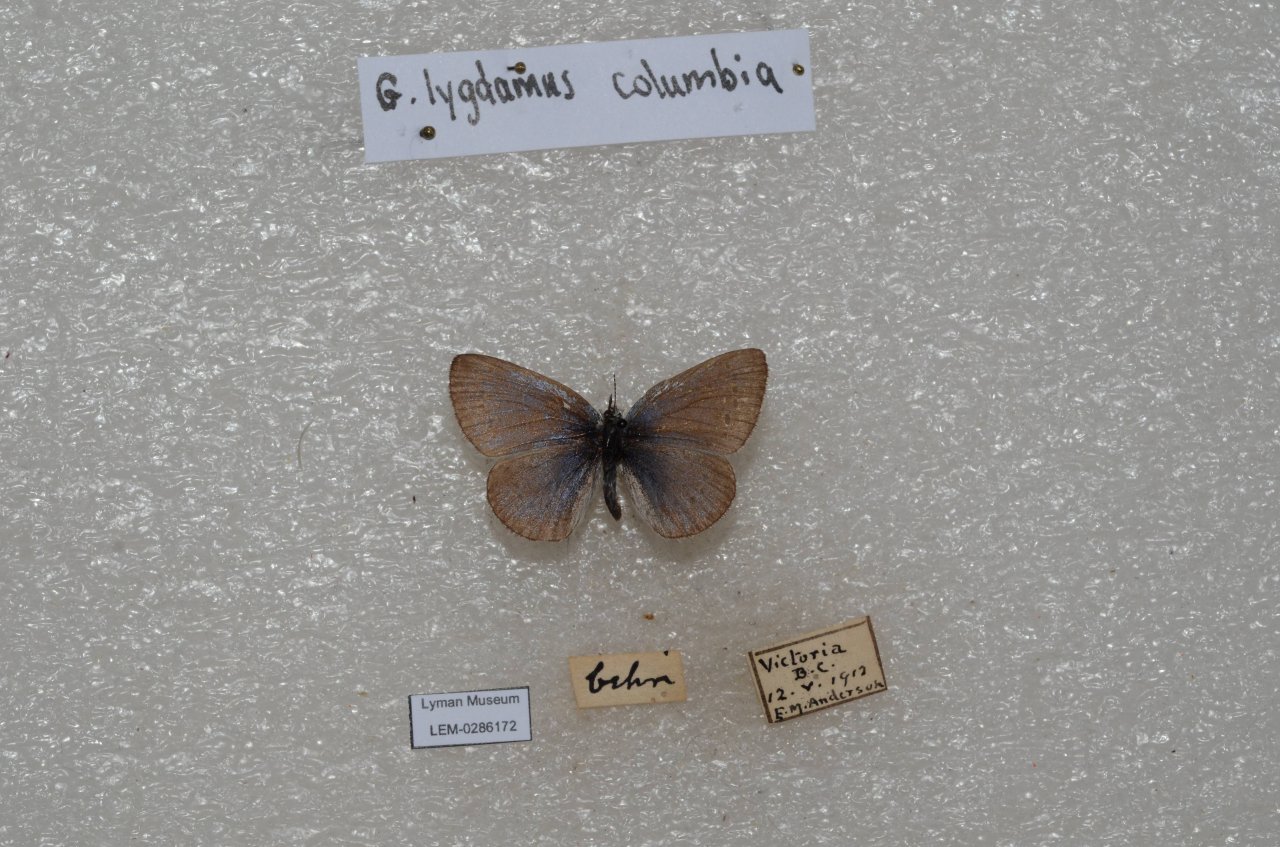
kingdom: Animalia
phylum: Arthropoda
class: Insecta
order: Lepidoptera
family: Lycaenidae
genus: Glaucopsyche
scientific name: Glaucopsyche lygdamus
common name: Silvery Blue
